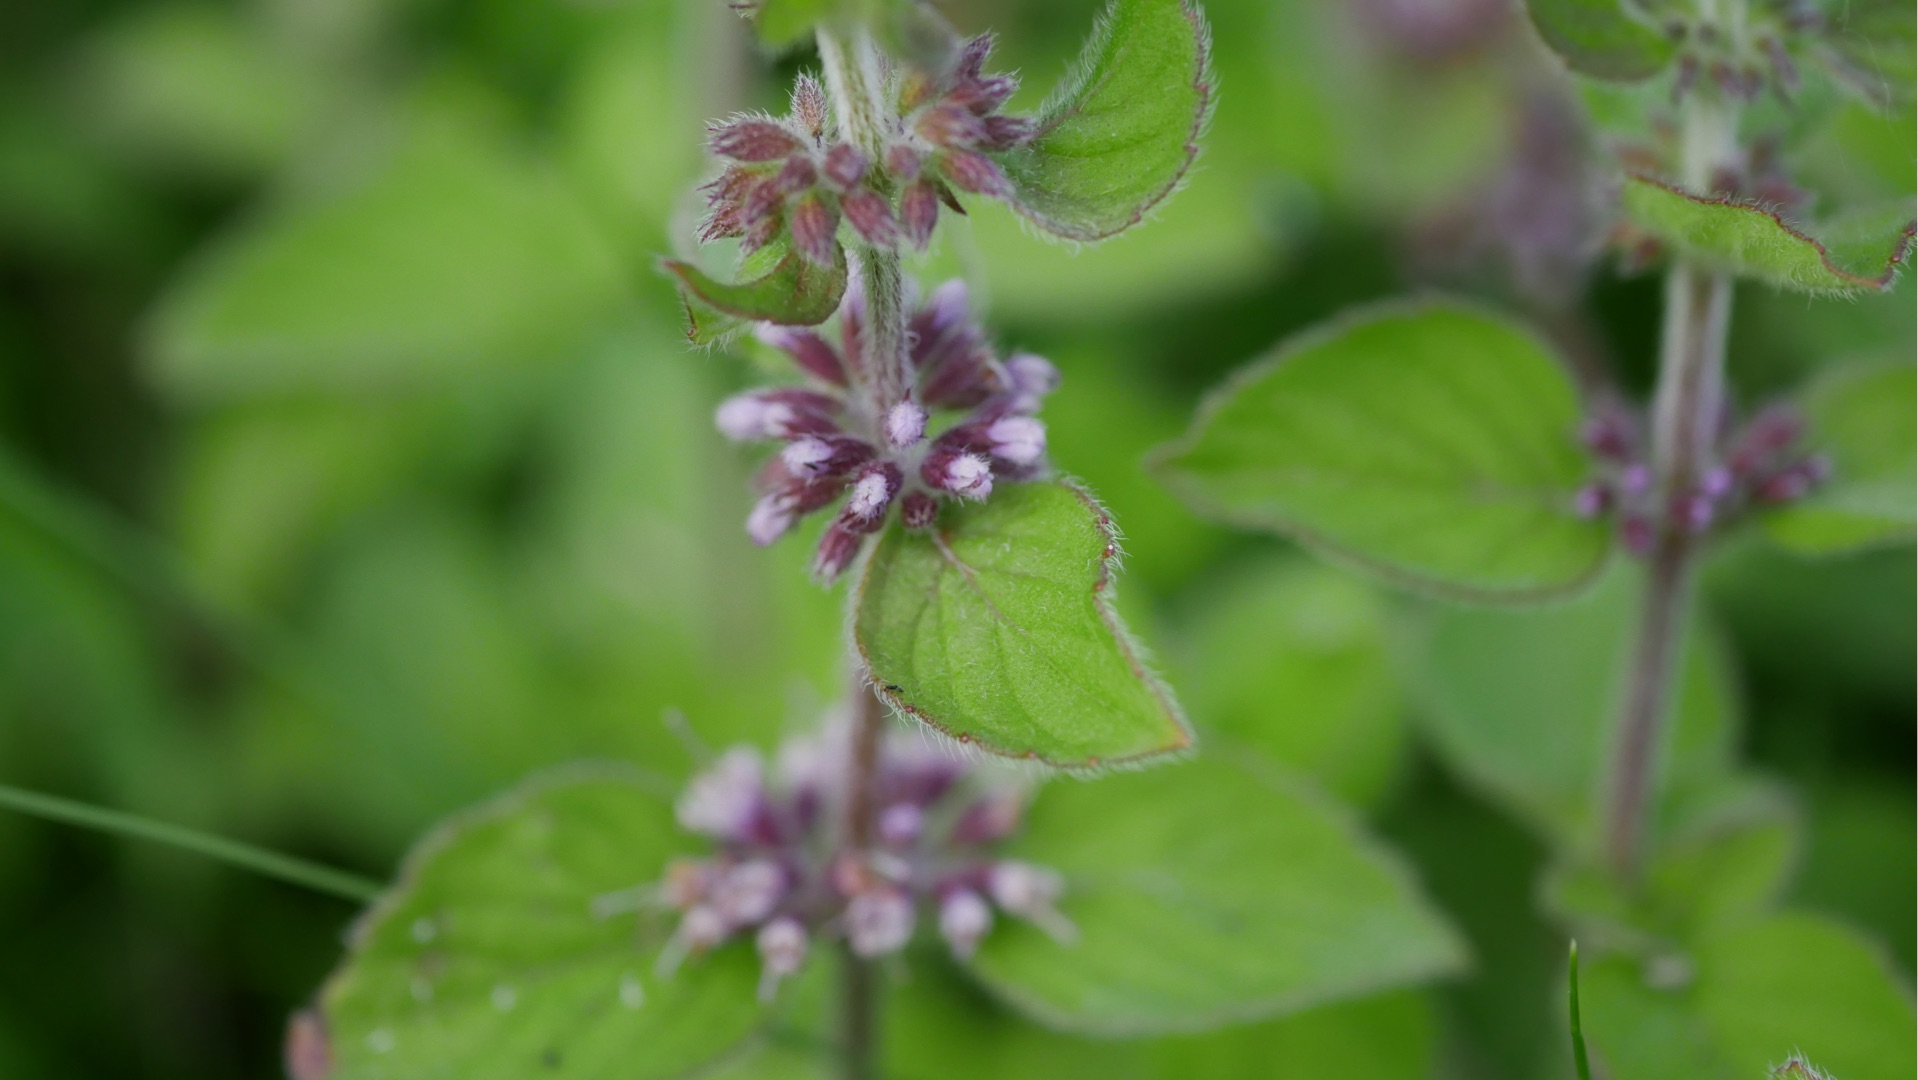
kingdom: Plantae
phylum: Tracheophyta
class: Magnoliopsida
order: Lamiales
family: Lamiaceae
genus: Mentha
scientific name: Mentha verticillata
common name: Krans-mynte
